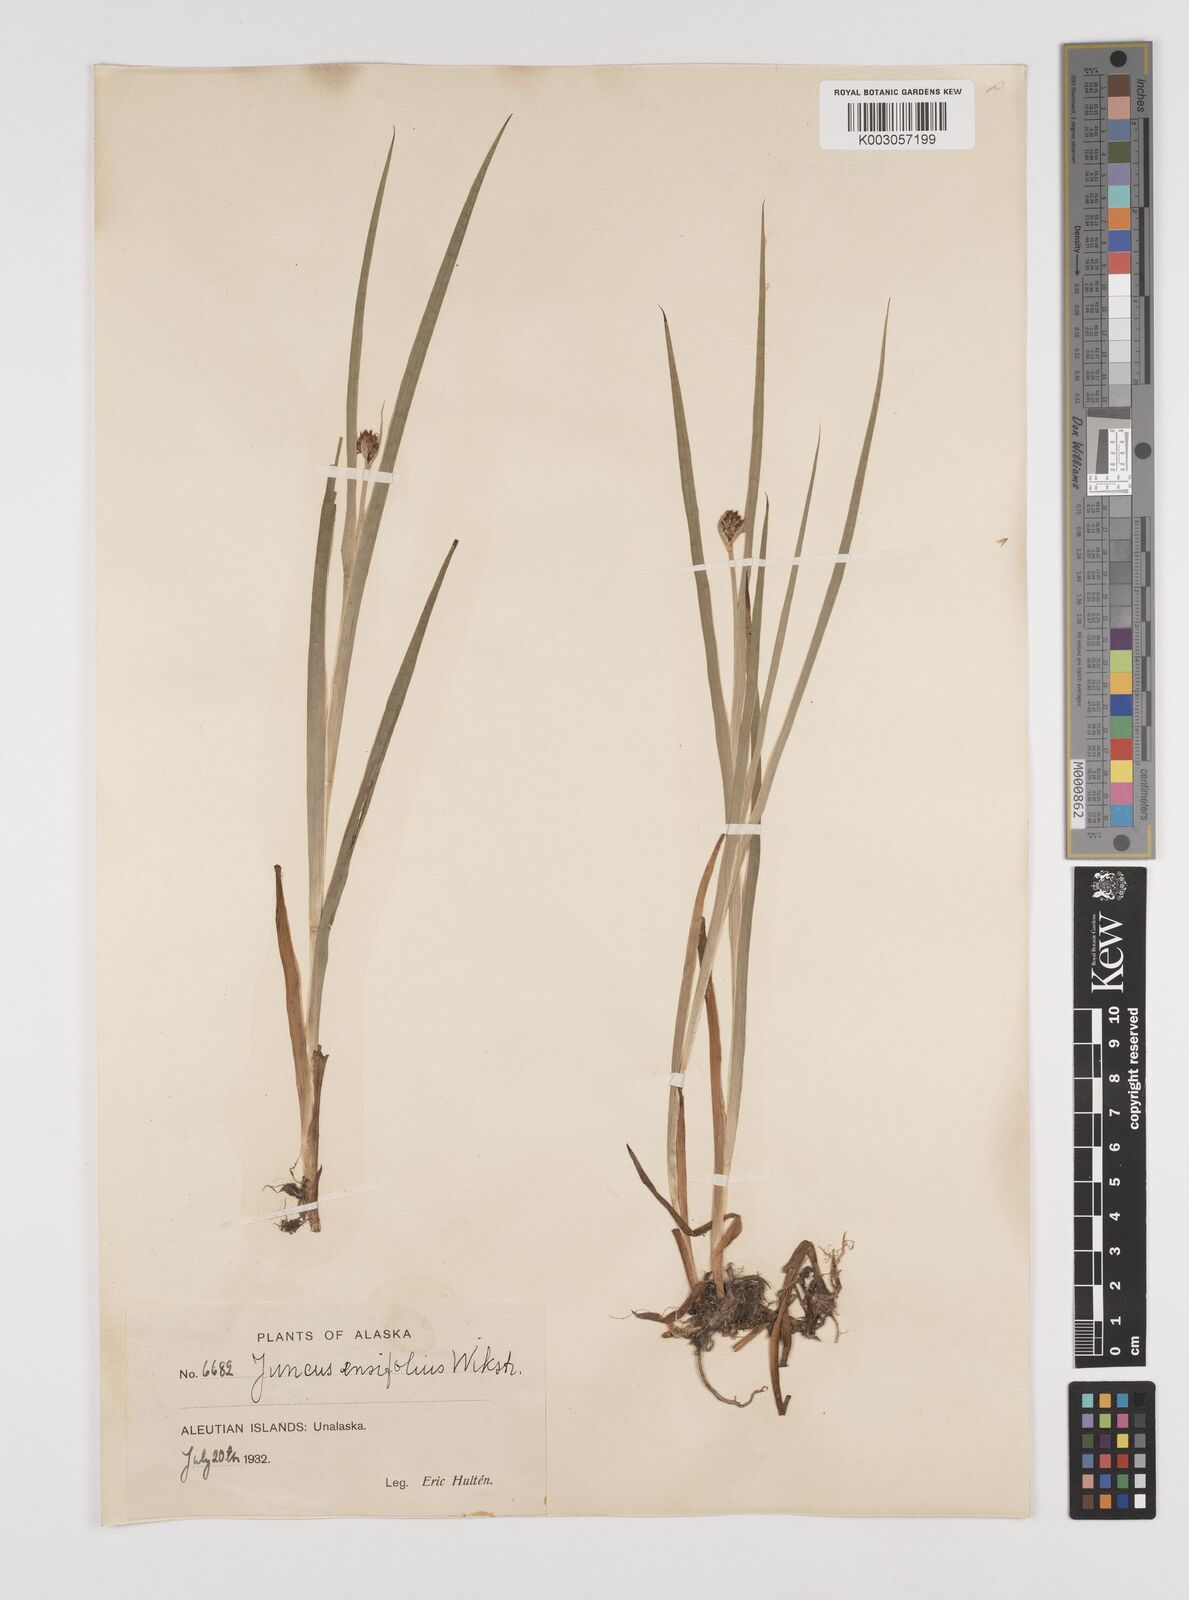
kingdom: Plantae
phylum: Tracheophyta
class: Liliopsida
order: Poales
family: Juncaceae
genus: Juncus
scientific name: Juncus ensifolius
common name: Sword-leaved rush
